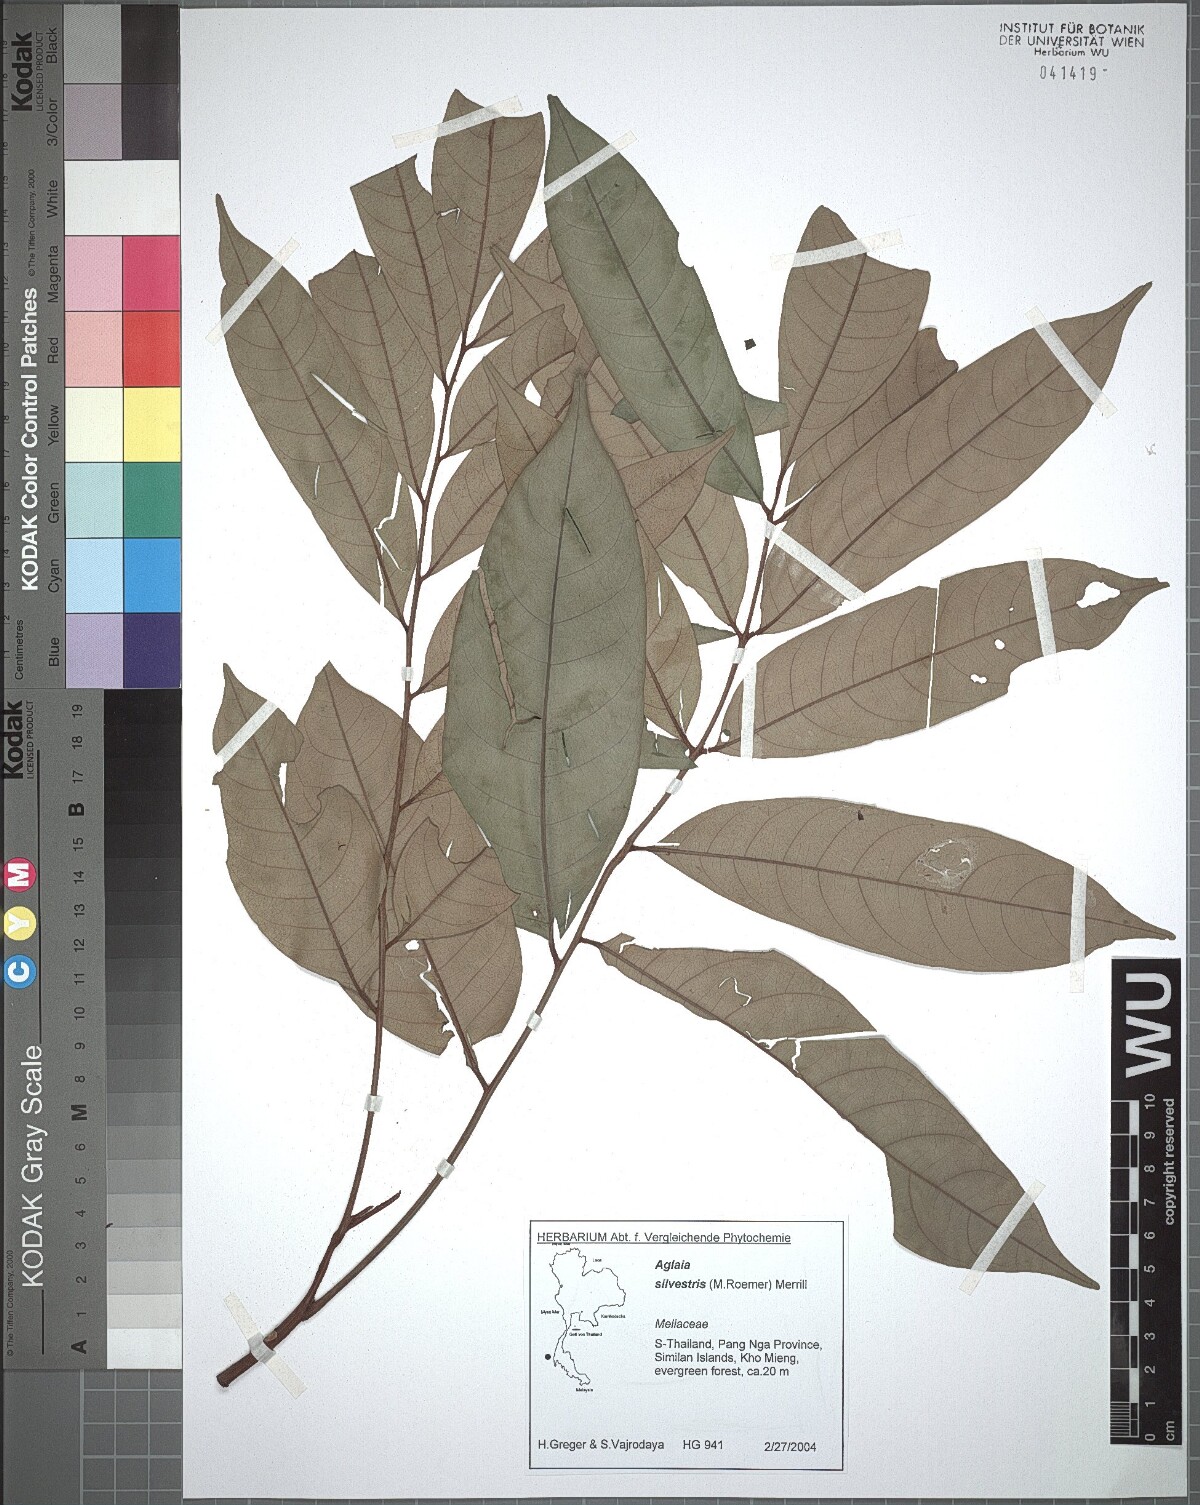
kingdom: Plantae
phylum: Tracheophyta
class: Magnoliopsida
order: Sapindales
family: Meliaceae
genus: Aglaia
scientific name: Aglaia silvestris
